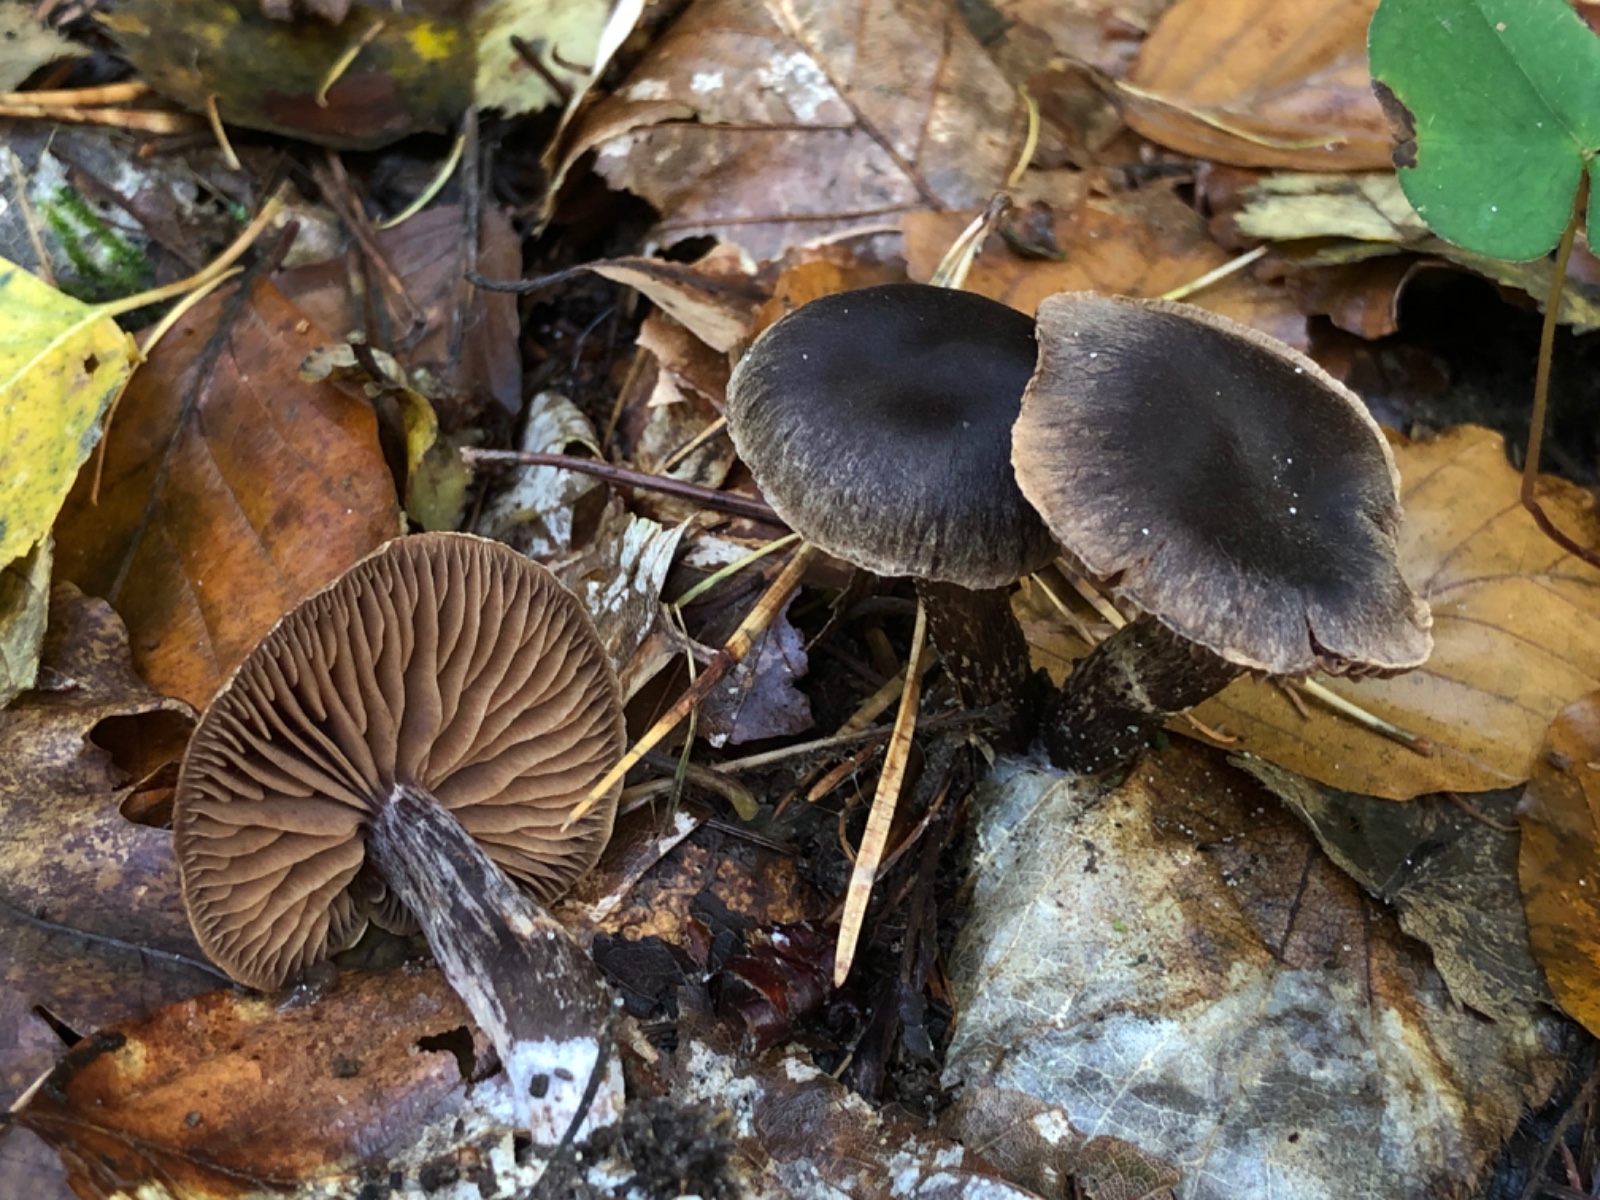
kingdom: Fungi
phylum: Basidiomycota
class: Agaricomycetes
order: Agaricales
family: Cortinariaceae
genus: Cortinarius
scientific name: Cortinarius umbrinolens
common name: mørk slørhat
